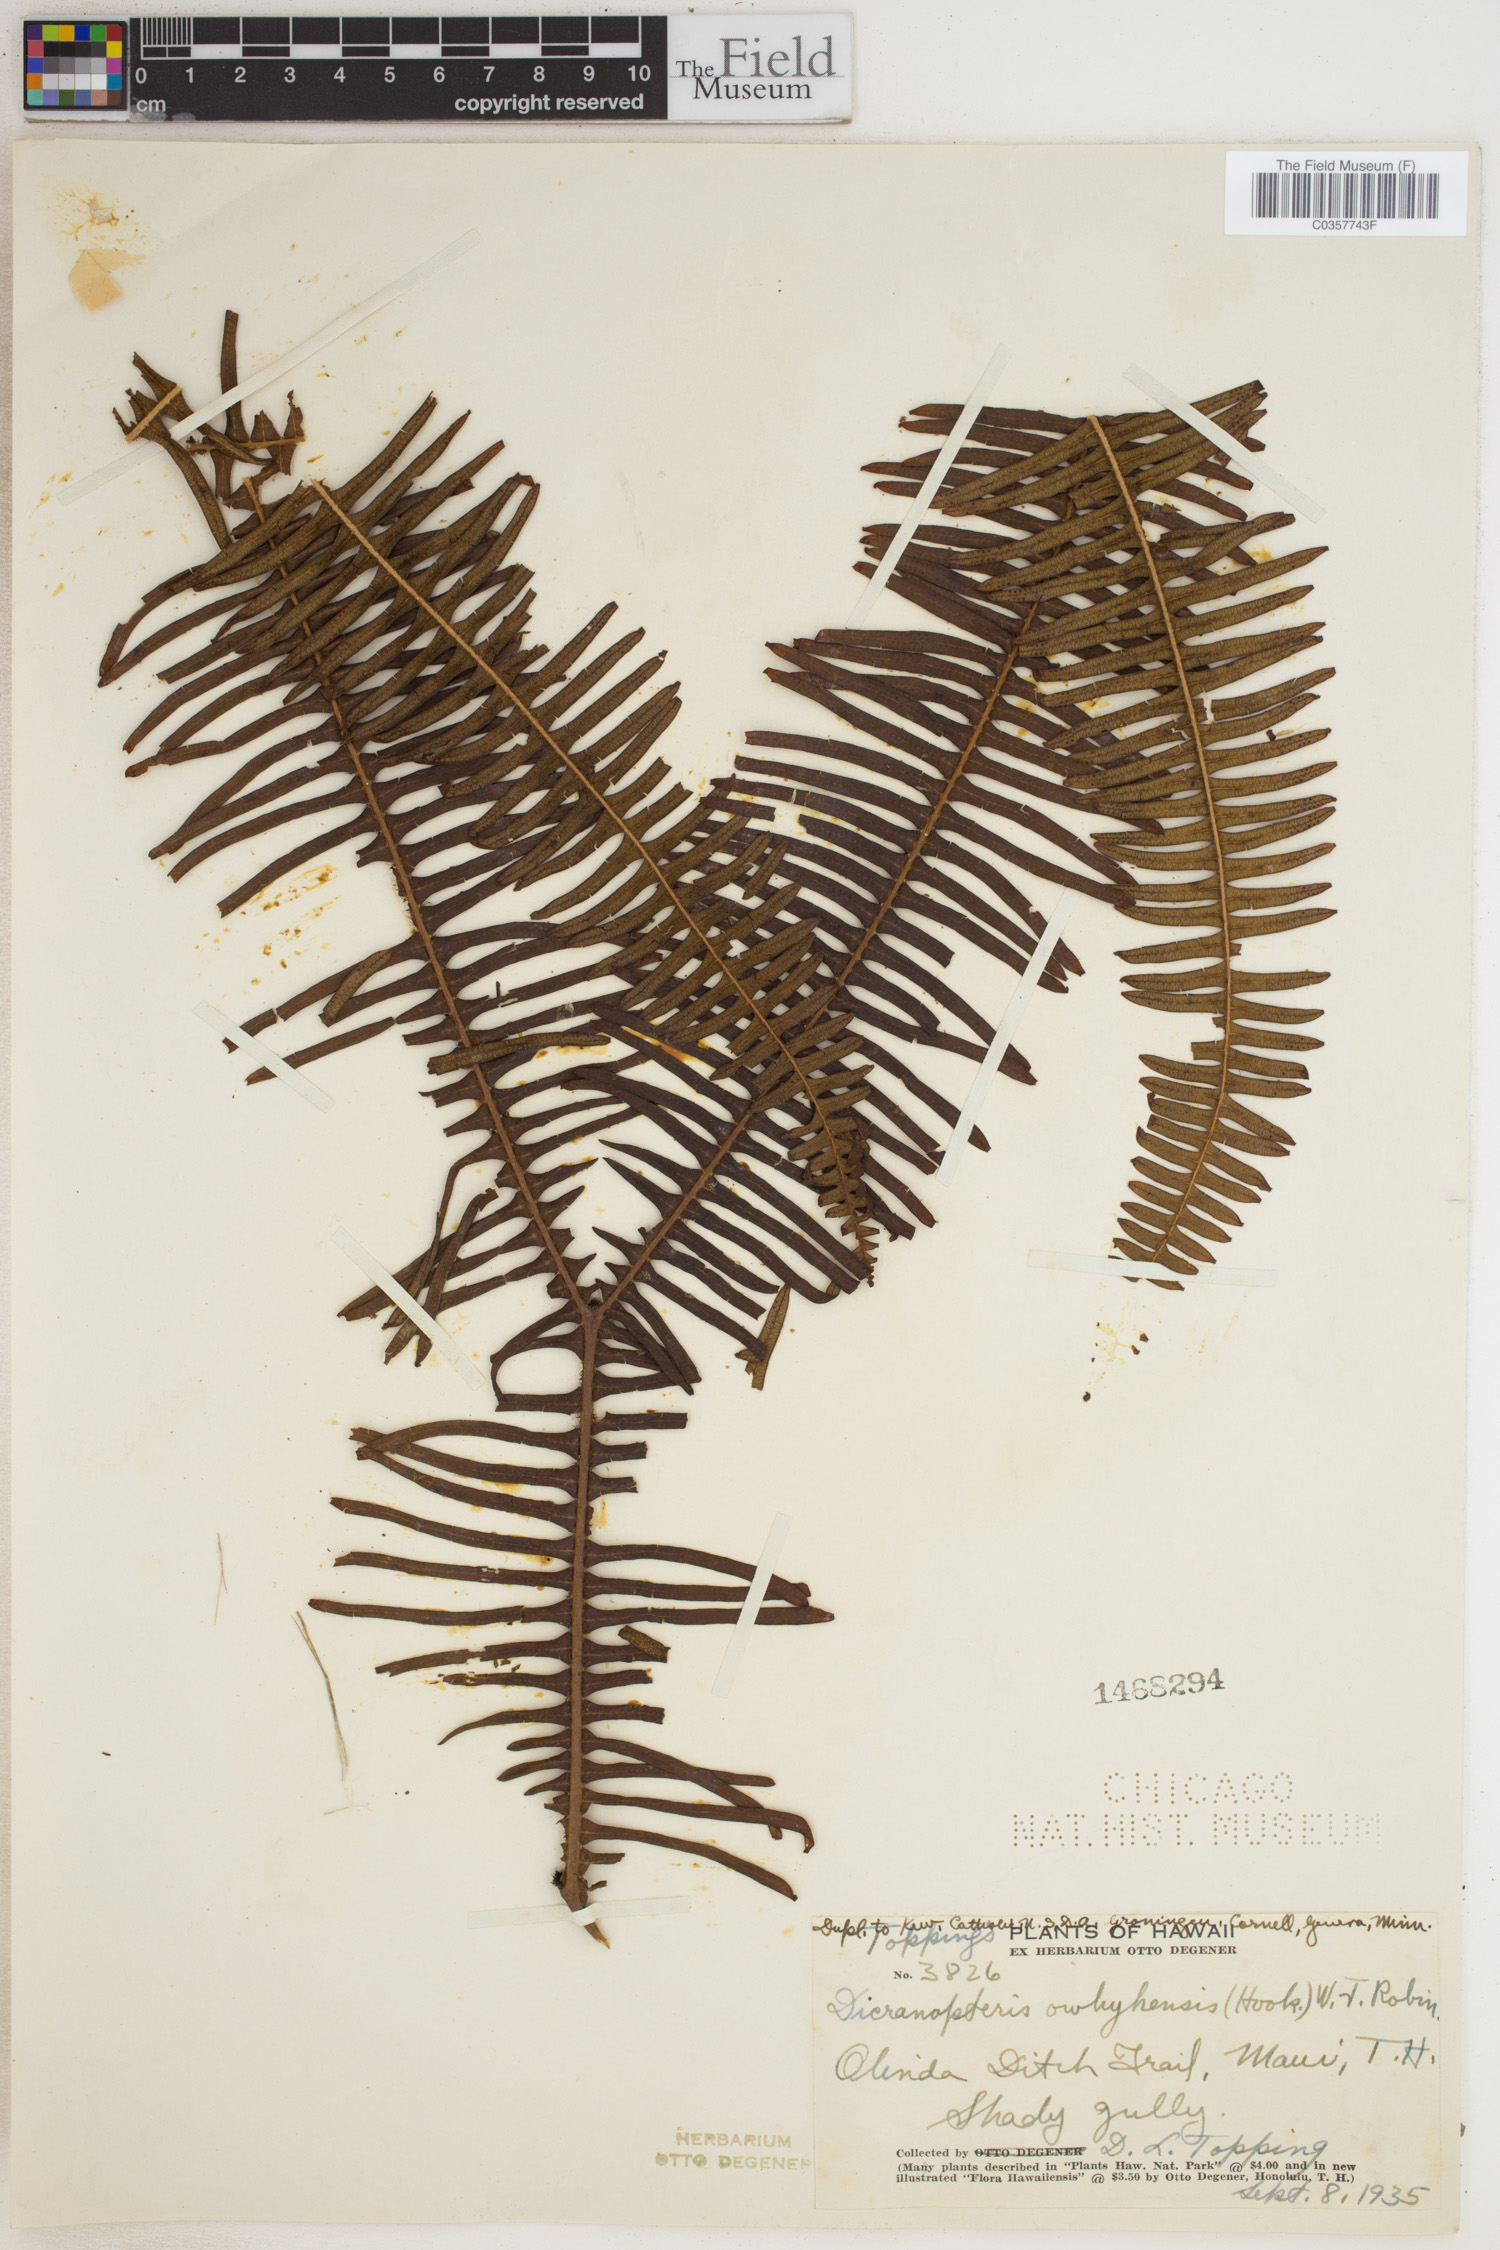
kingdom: Plantae
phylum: Tracheophyta
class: Polypodiopsida
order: Gleicheniales
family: Gleicheniaceae
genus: Sticherus
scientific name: Sticherus owhyhensis
